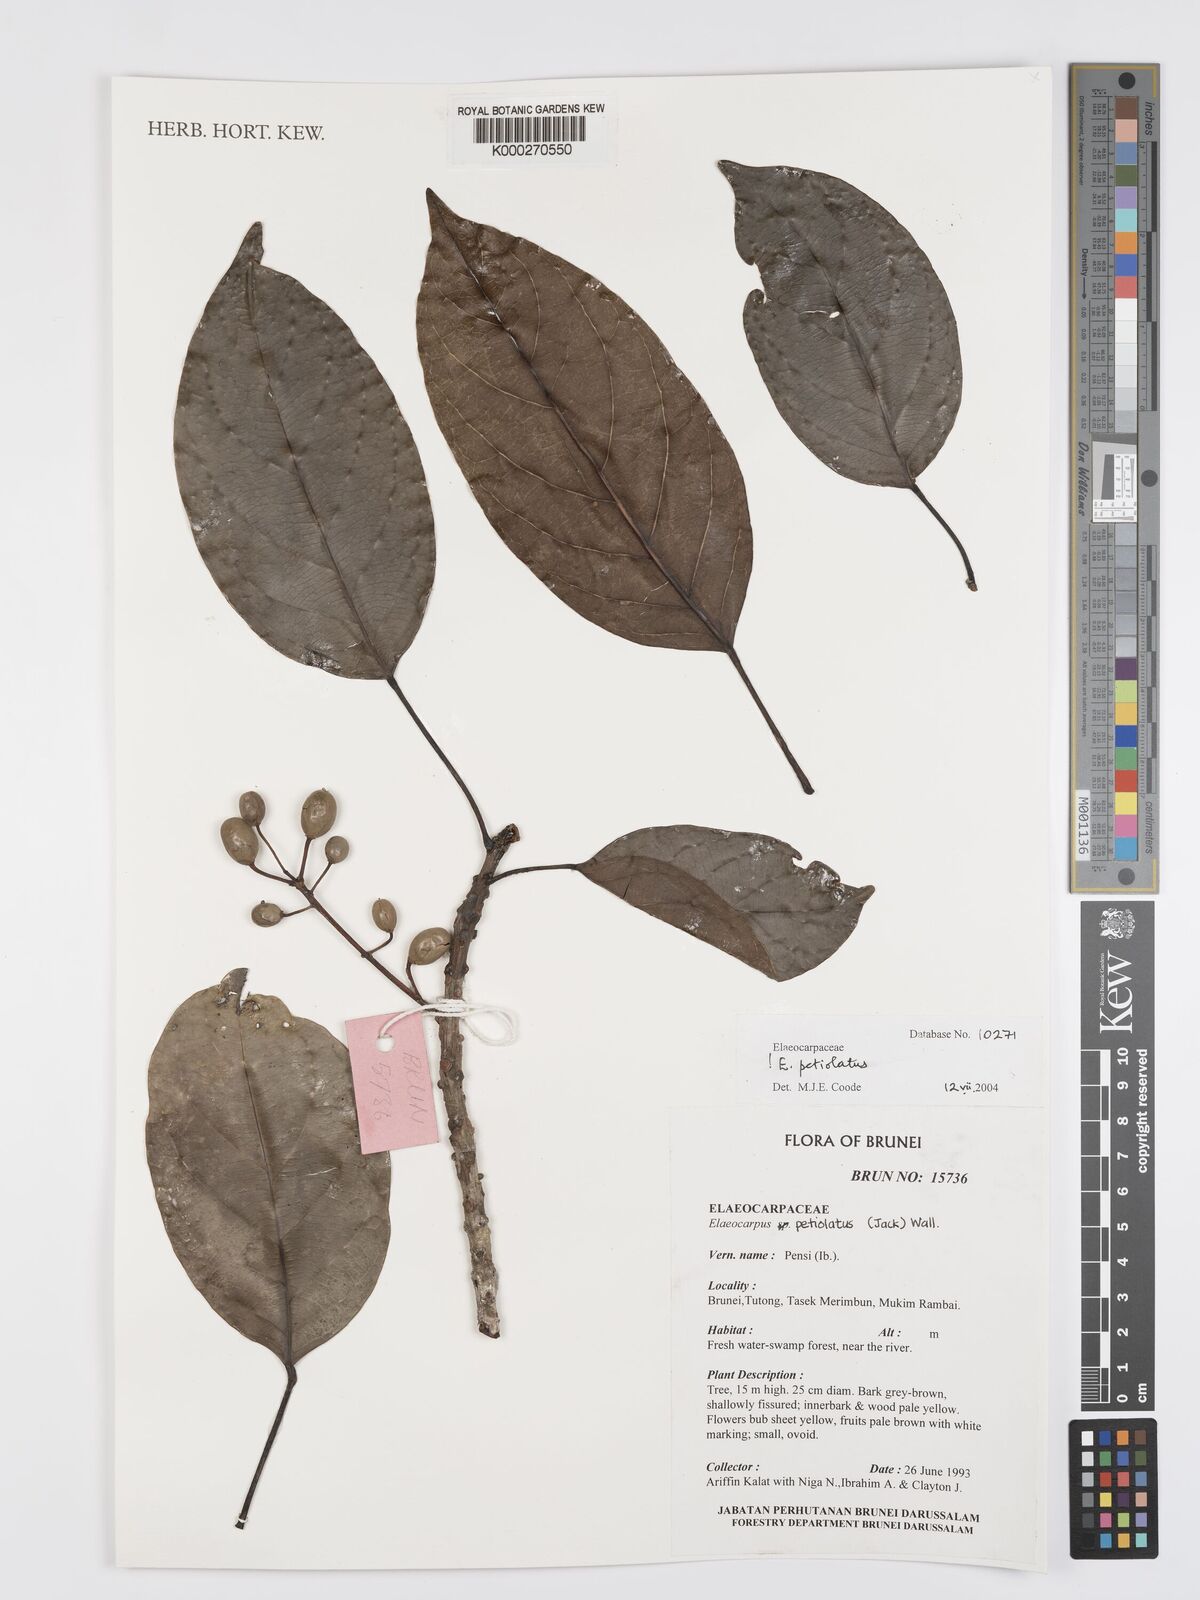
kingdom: Plantae
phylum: Tracheophyta
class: Magnoliopsida
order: Oxalidales
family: Elaeocarpaceae
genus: Elaeocarpus
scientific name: Elaeocarpus petiolatus
